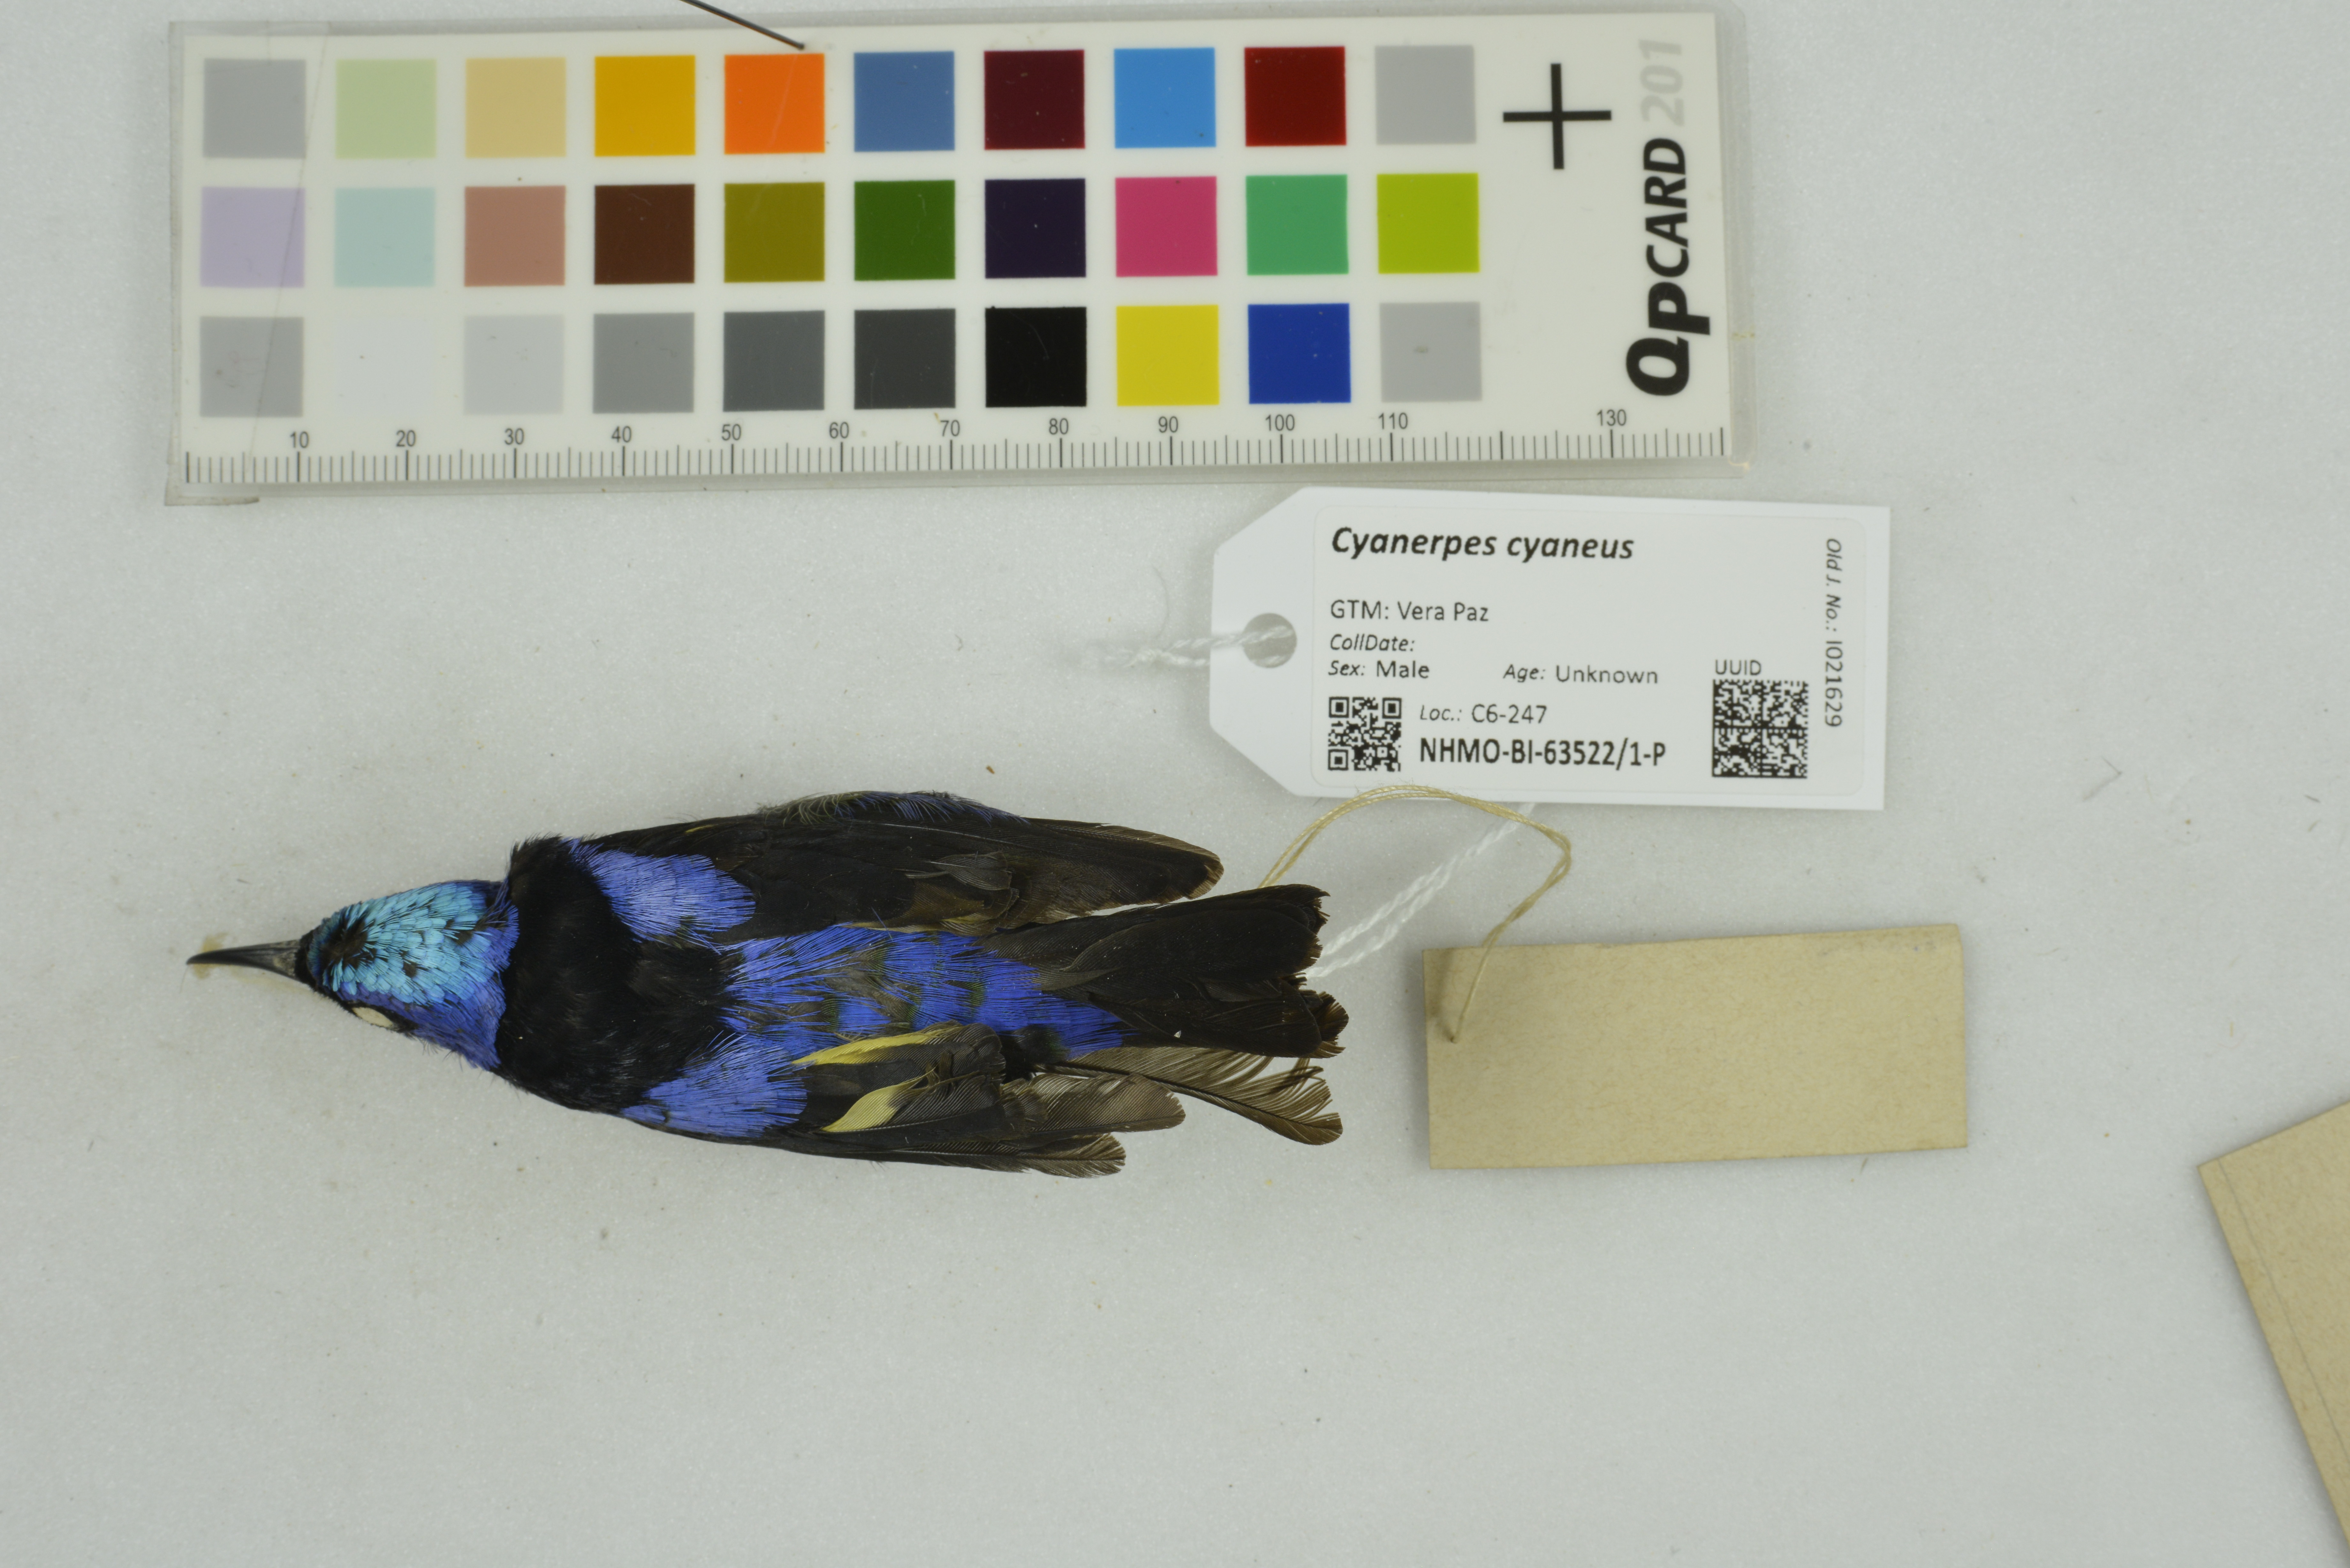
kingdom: Animalia
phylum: Chordata
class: Aves
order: Passeriformes
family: Thraupidae
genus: Cyanerpes
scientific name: Cyanerpes cyaneus
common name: Red-legged honeycreeper
